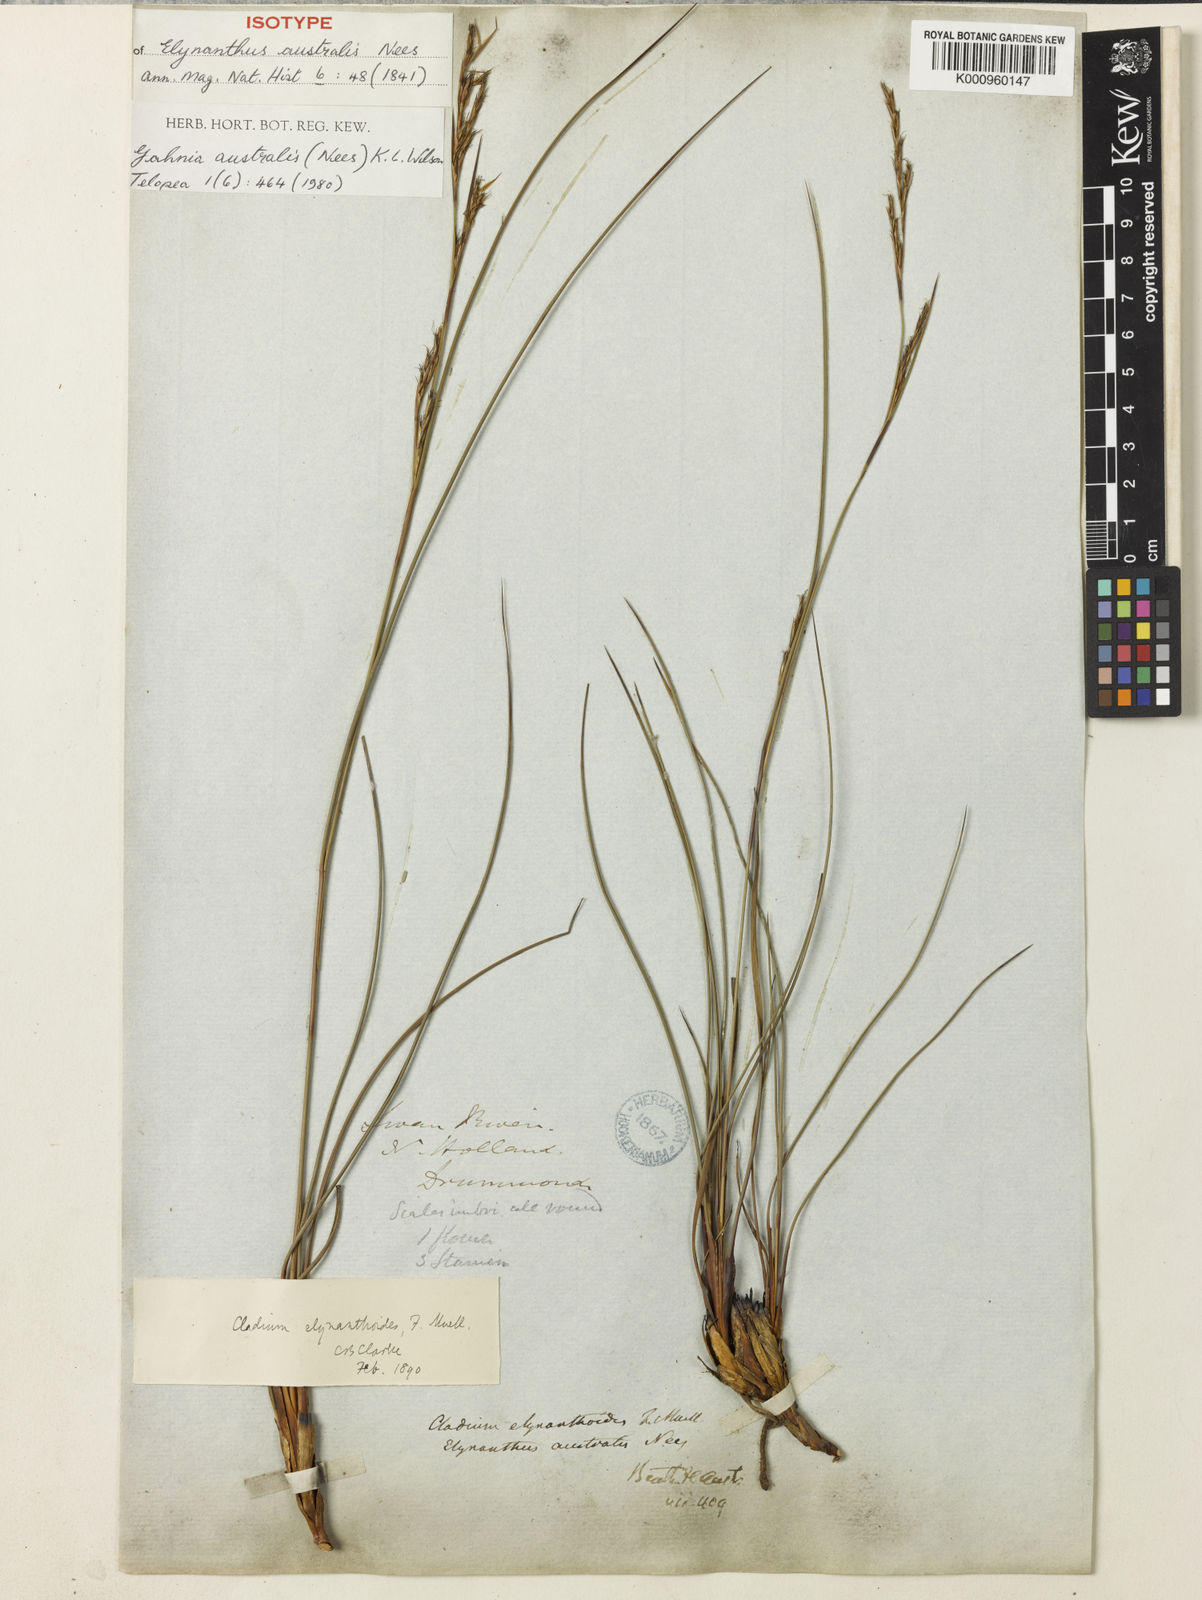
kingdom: Plantae
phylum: Tracheophyta
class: Liliopsida
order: Poales
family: Cyperaceae
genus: Gahnia
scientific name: Gahnia
